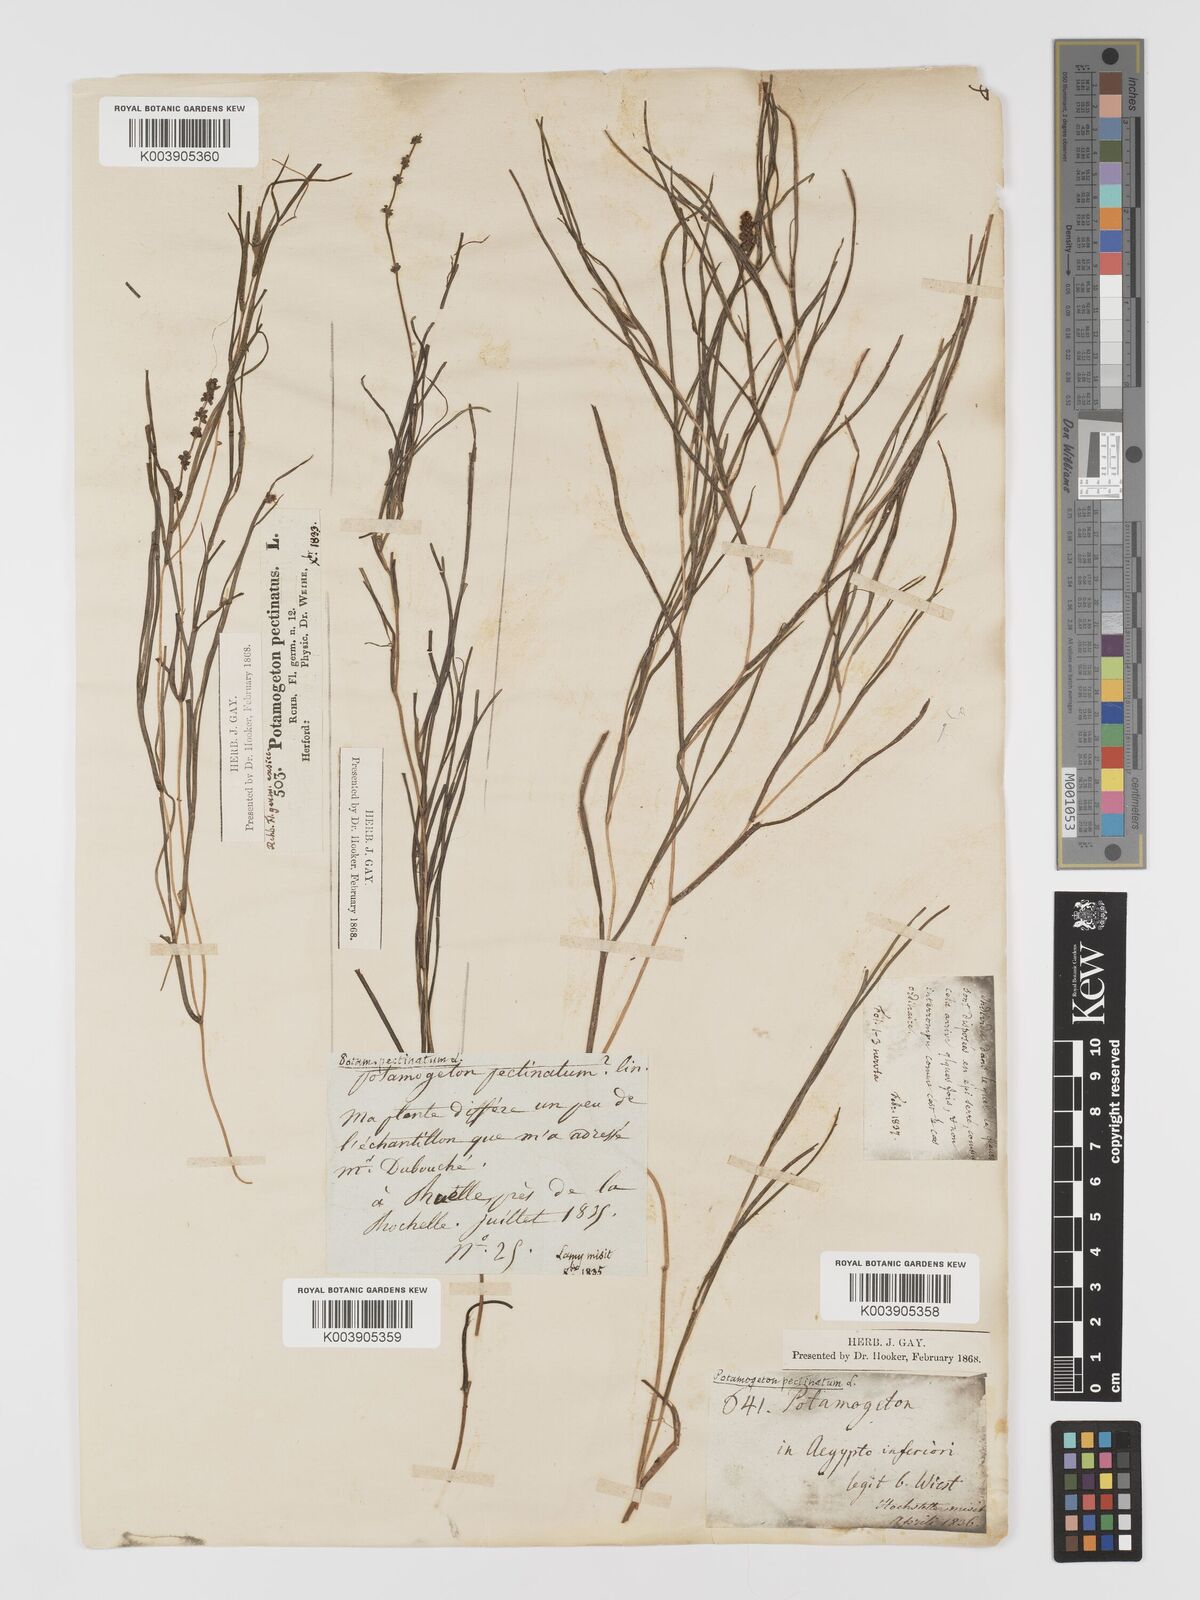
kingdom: Plantae
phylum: Tracheophyta
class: Liliopsida
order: Alismatales
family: Potamogetonaceae
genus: Stuckenia
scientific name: Stuckenia pectinata
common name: Sago pondweed
